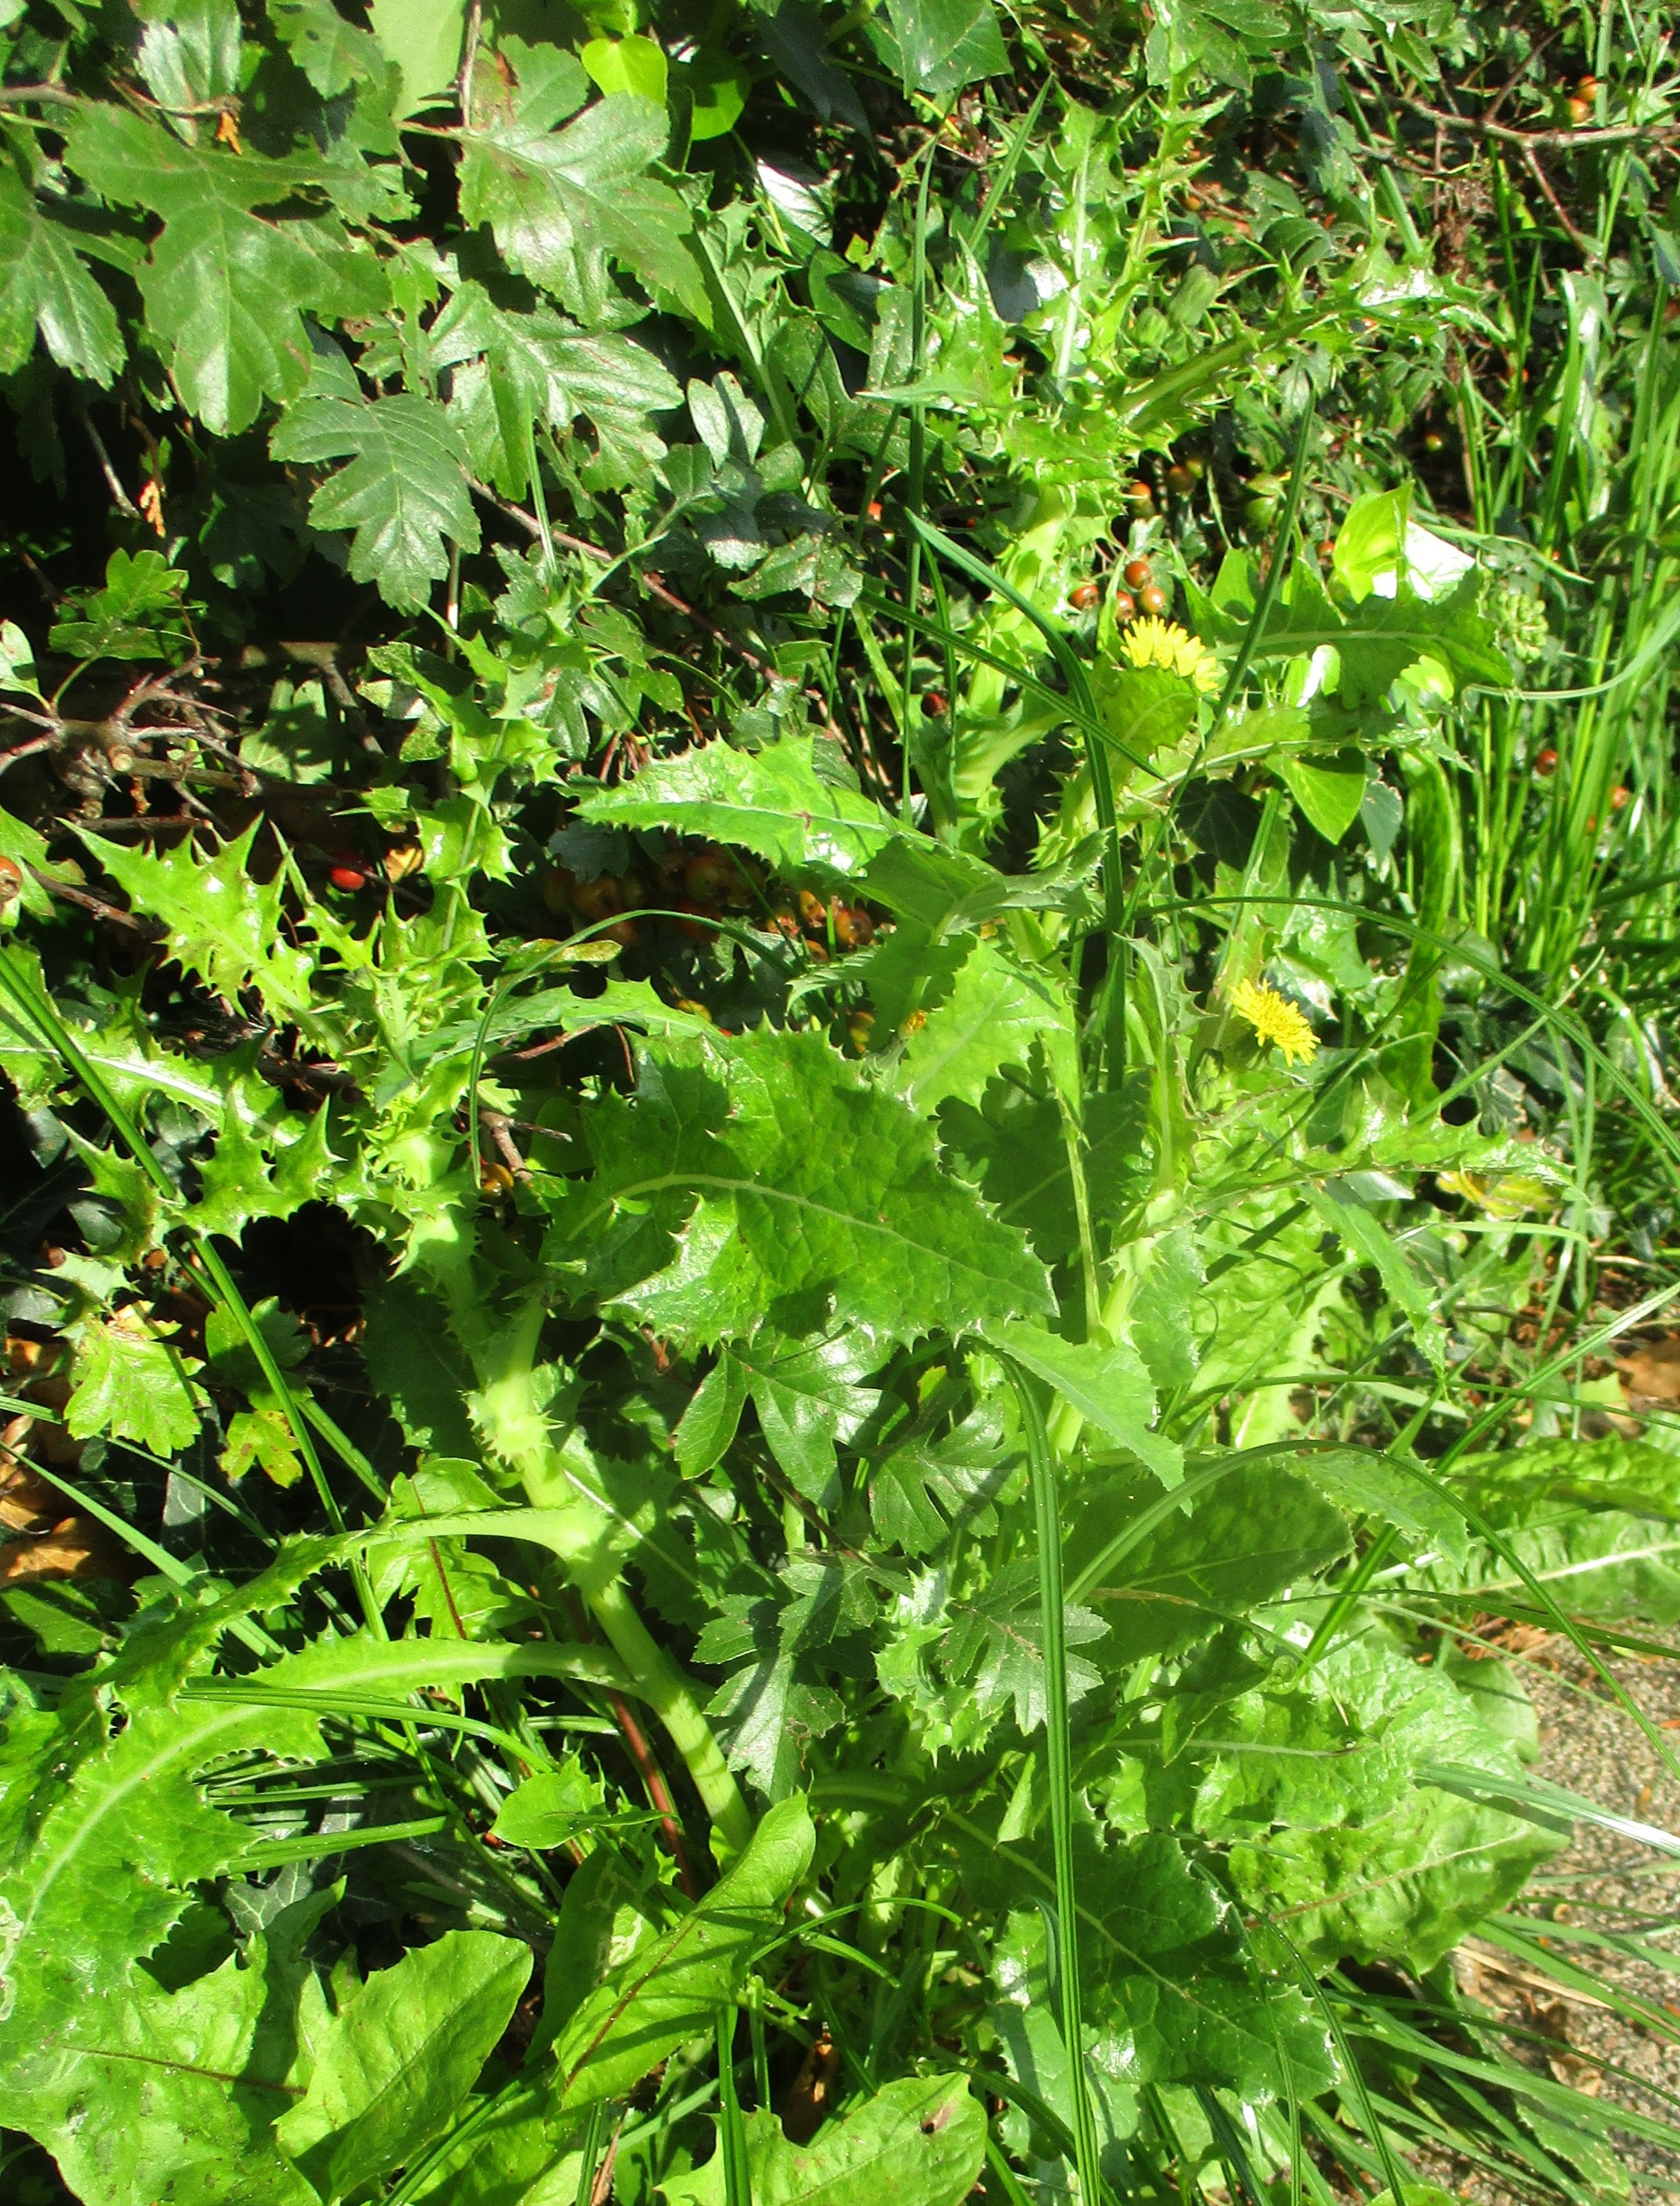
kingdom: Plantae
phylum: Tracheophyta
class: Magnoliopsida
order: Asterales
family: Asteraceae
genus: Sonchus
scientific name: Sonchus asper
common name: Ru svinemælk
